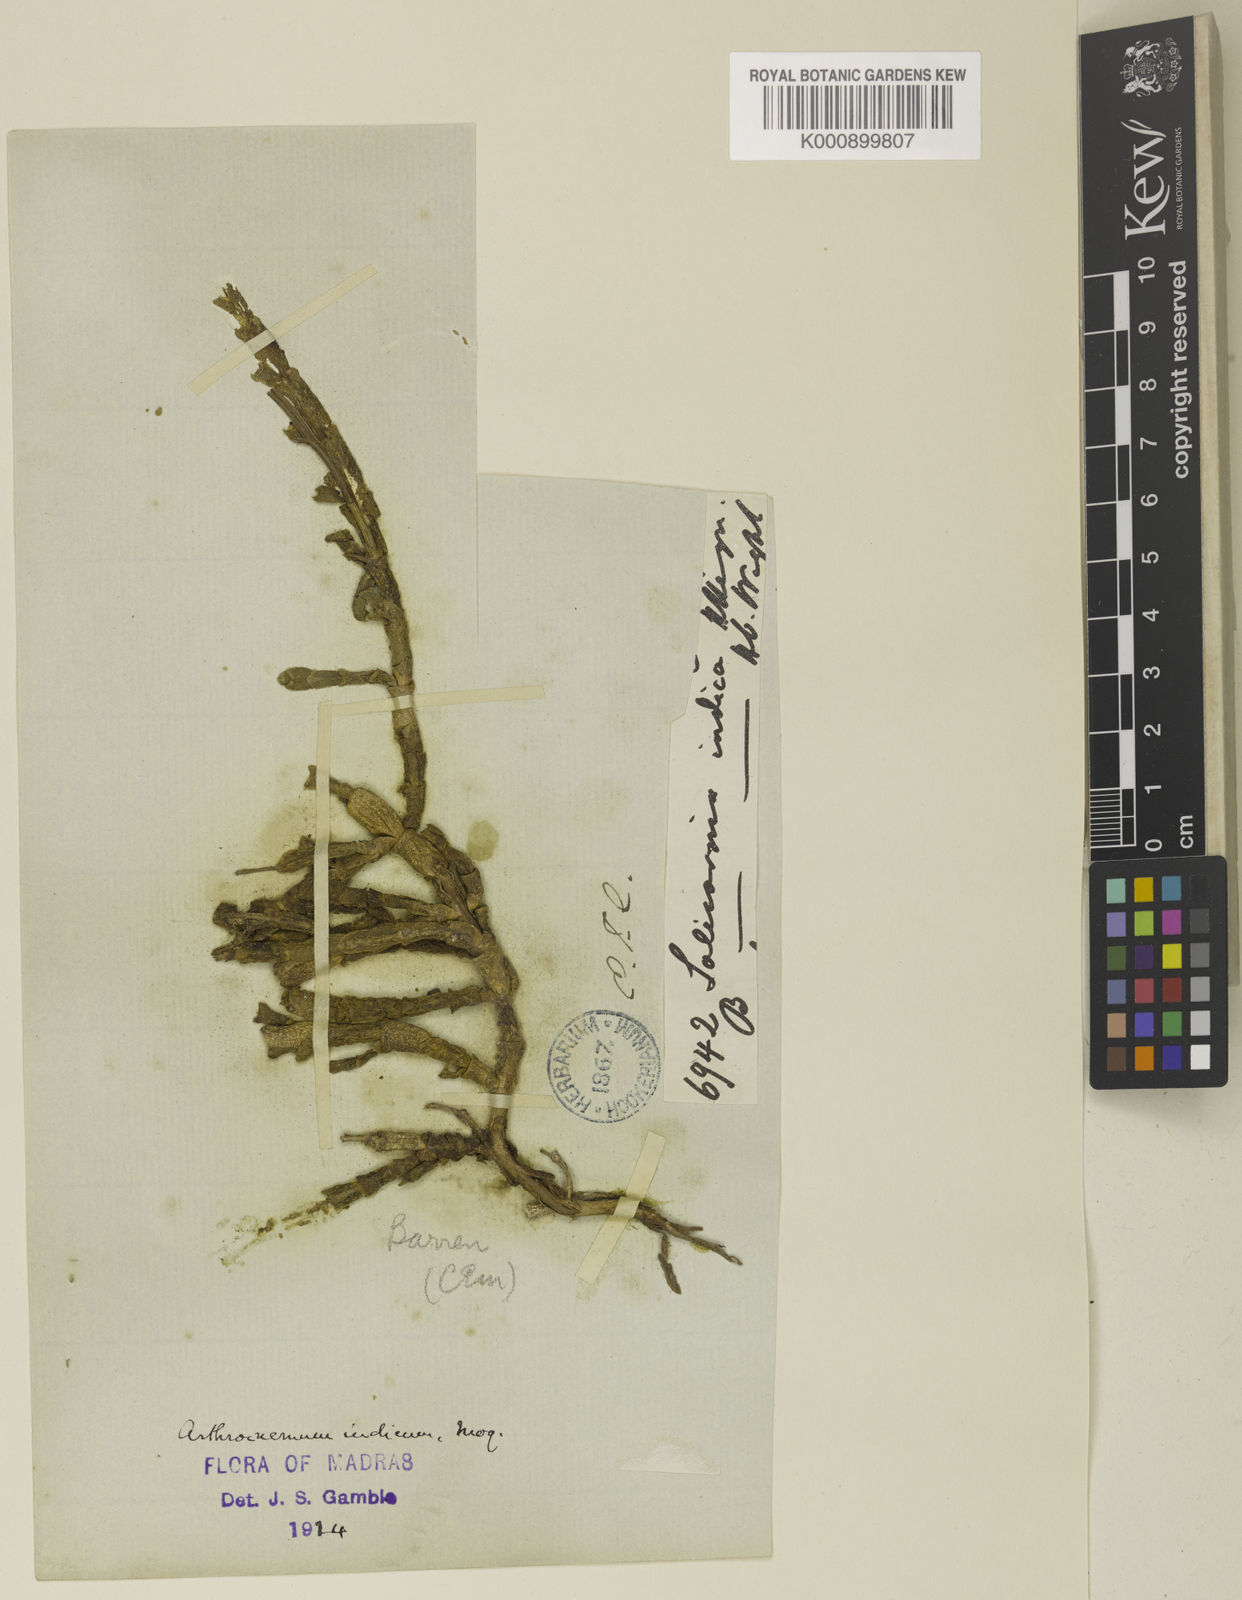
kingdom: Plantae
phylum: Tracheophyta
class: Magnoliopsida
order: Caryophyllales
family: Amaranthaceae
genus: Tecticornia
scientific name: Tecticornia indica
